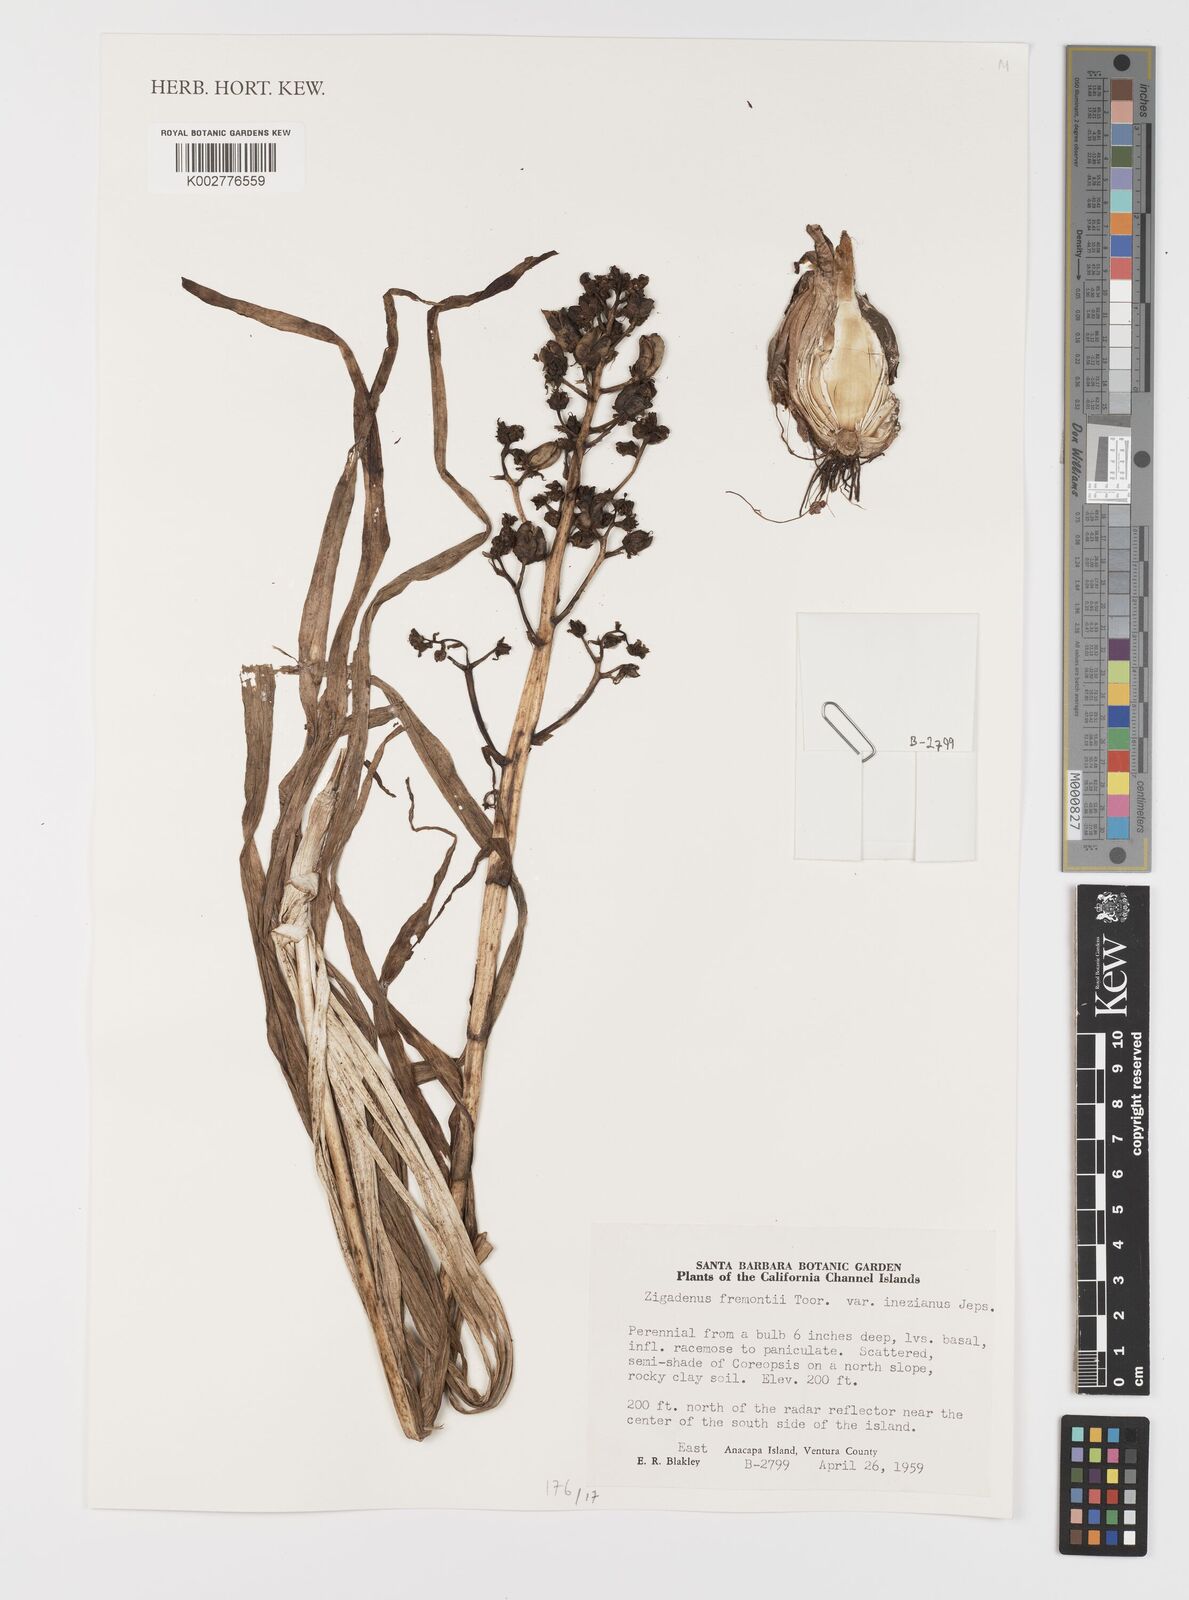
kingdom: Plantae
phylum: Tracheophyta
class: Liliopsida
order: Liliales
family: Melanthiaceae
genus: Toxicoscordion
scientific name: Toxicoscordion fremontii
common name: Fremont's death camas
